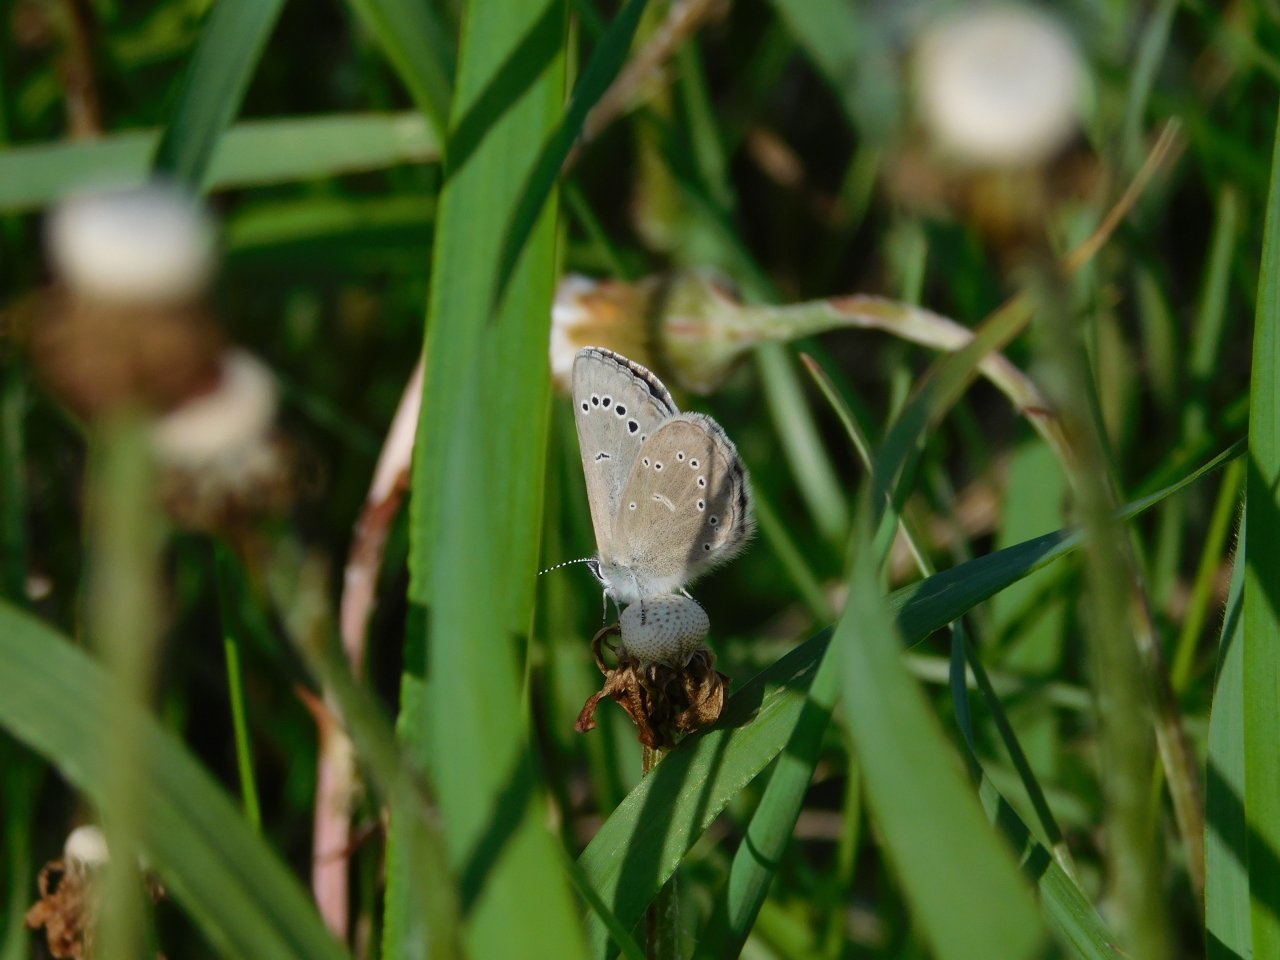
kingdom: Animalia
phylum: Arthropoda
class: Insecta
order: Lepidoptera
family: Lycaenidae
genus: Glaucopsyche
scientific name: Glaucopsyche lygdamus
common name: Silvery Blue
